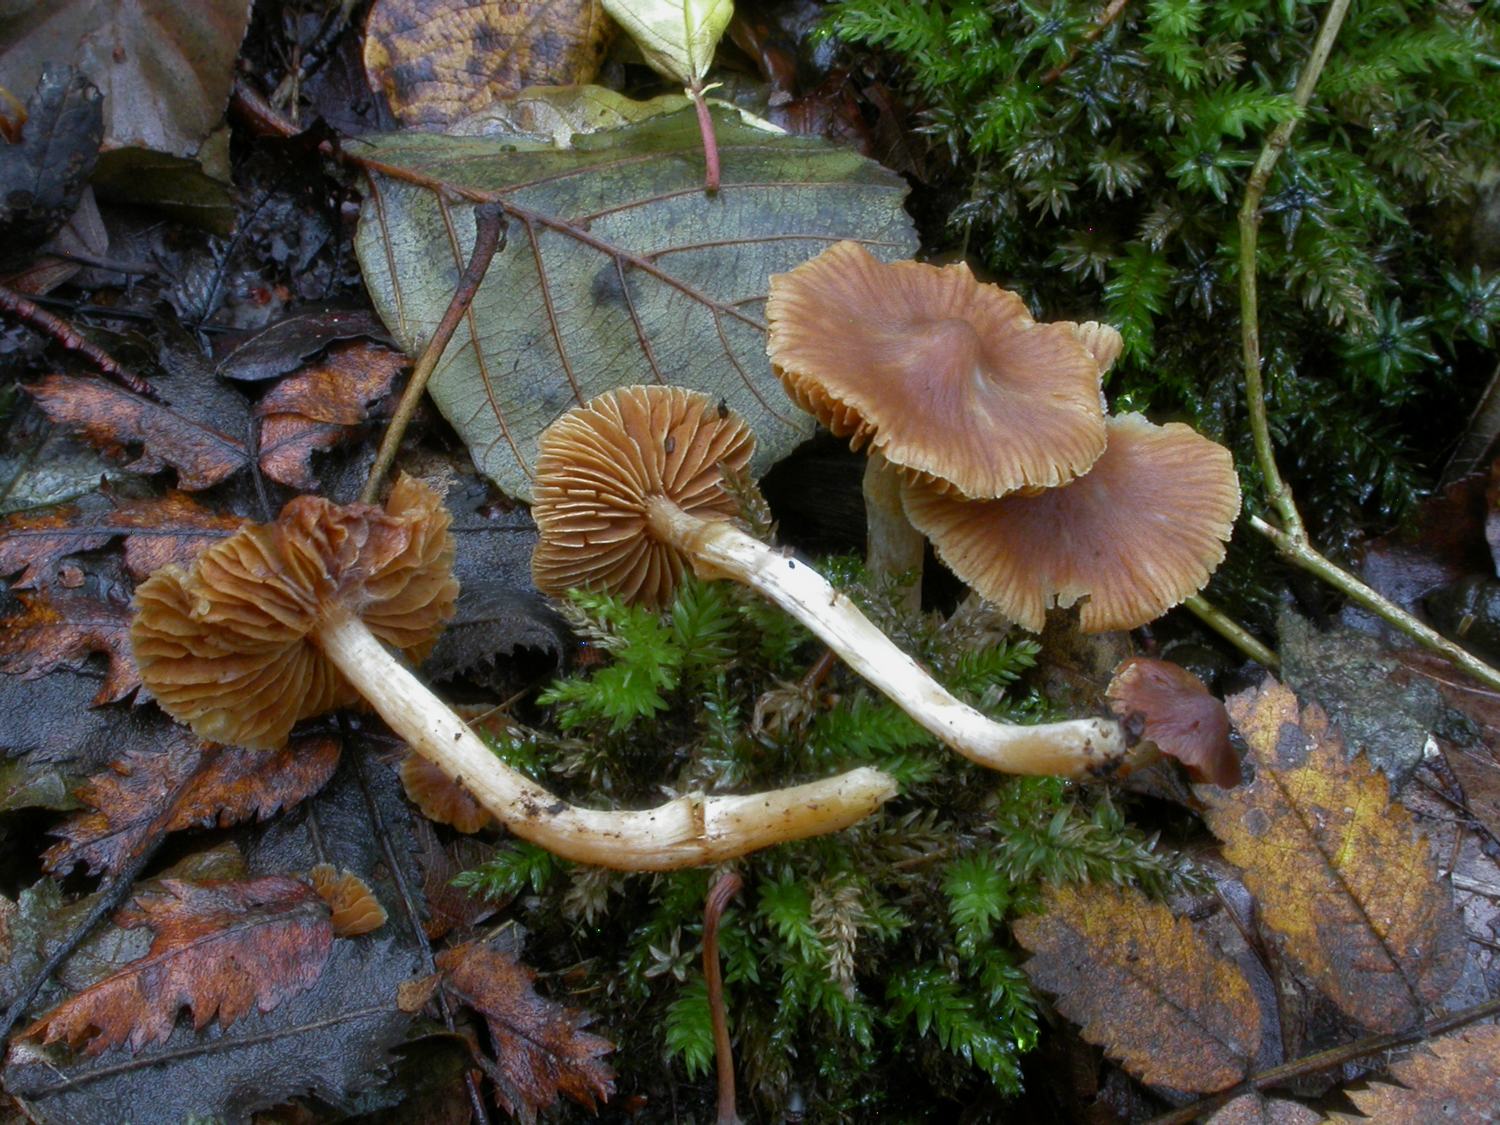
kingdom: Fungi
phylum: Basidiomycota
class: Agaricomycetes
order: Agaricales
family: Cortinariaceae
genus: Cortinarius
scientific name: Cortinarius
